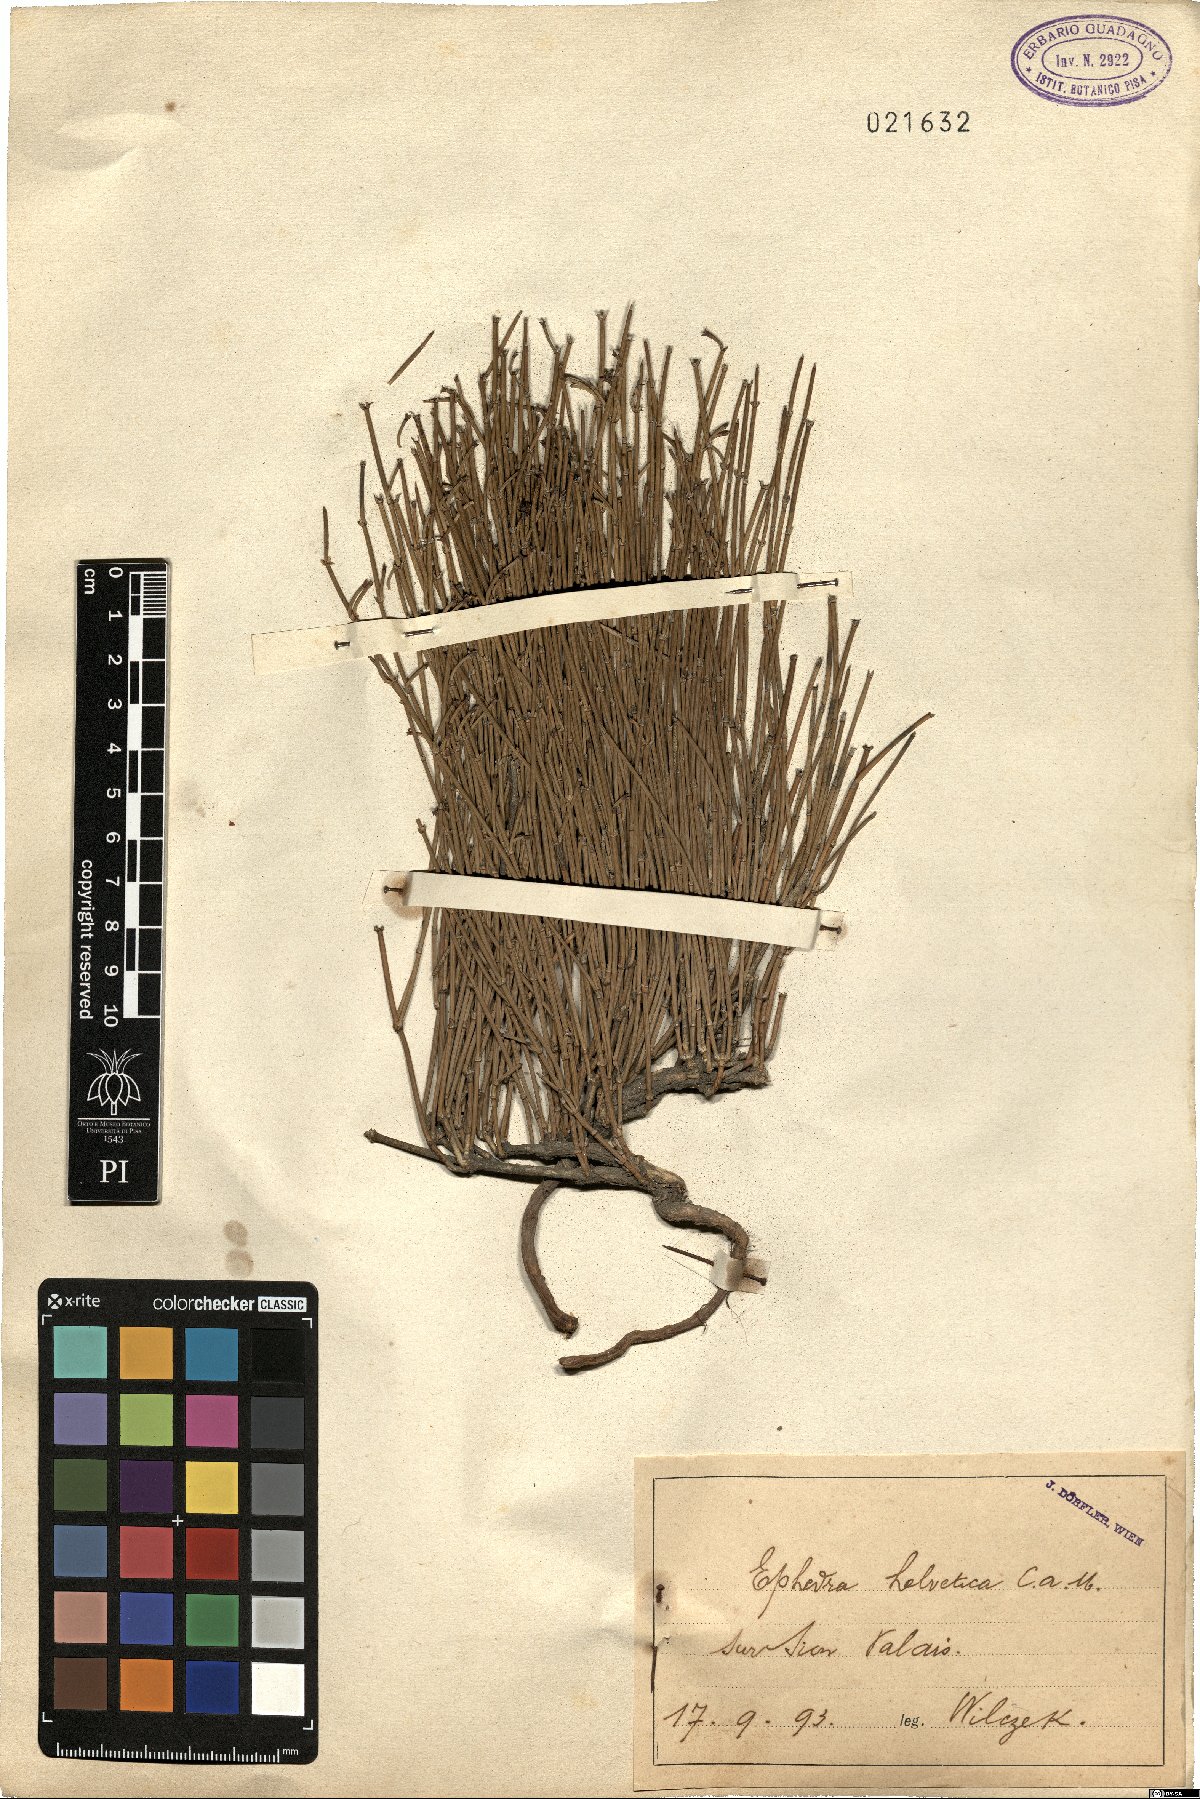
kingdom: Plantae
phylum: Tracheophyta
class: Gnetopsida
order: Ephedrales
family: Ephedraceae
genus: Ephedra
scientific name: Ephedra distachya
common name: Sea grape
